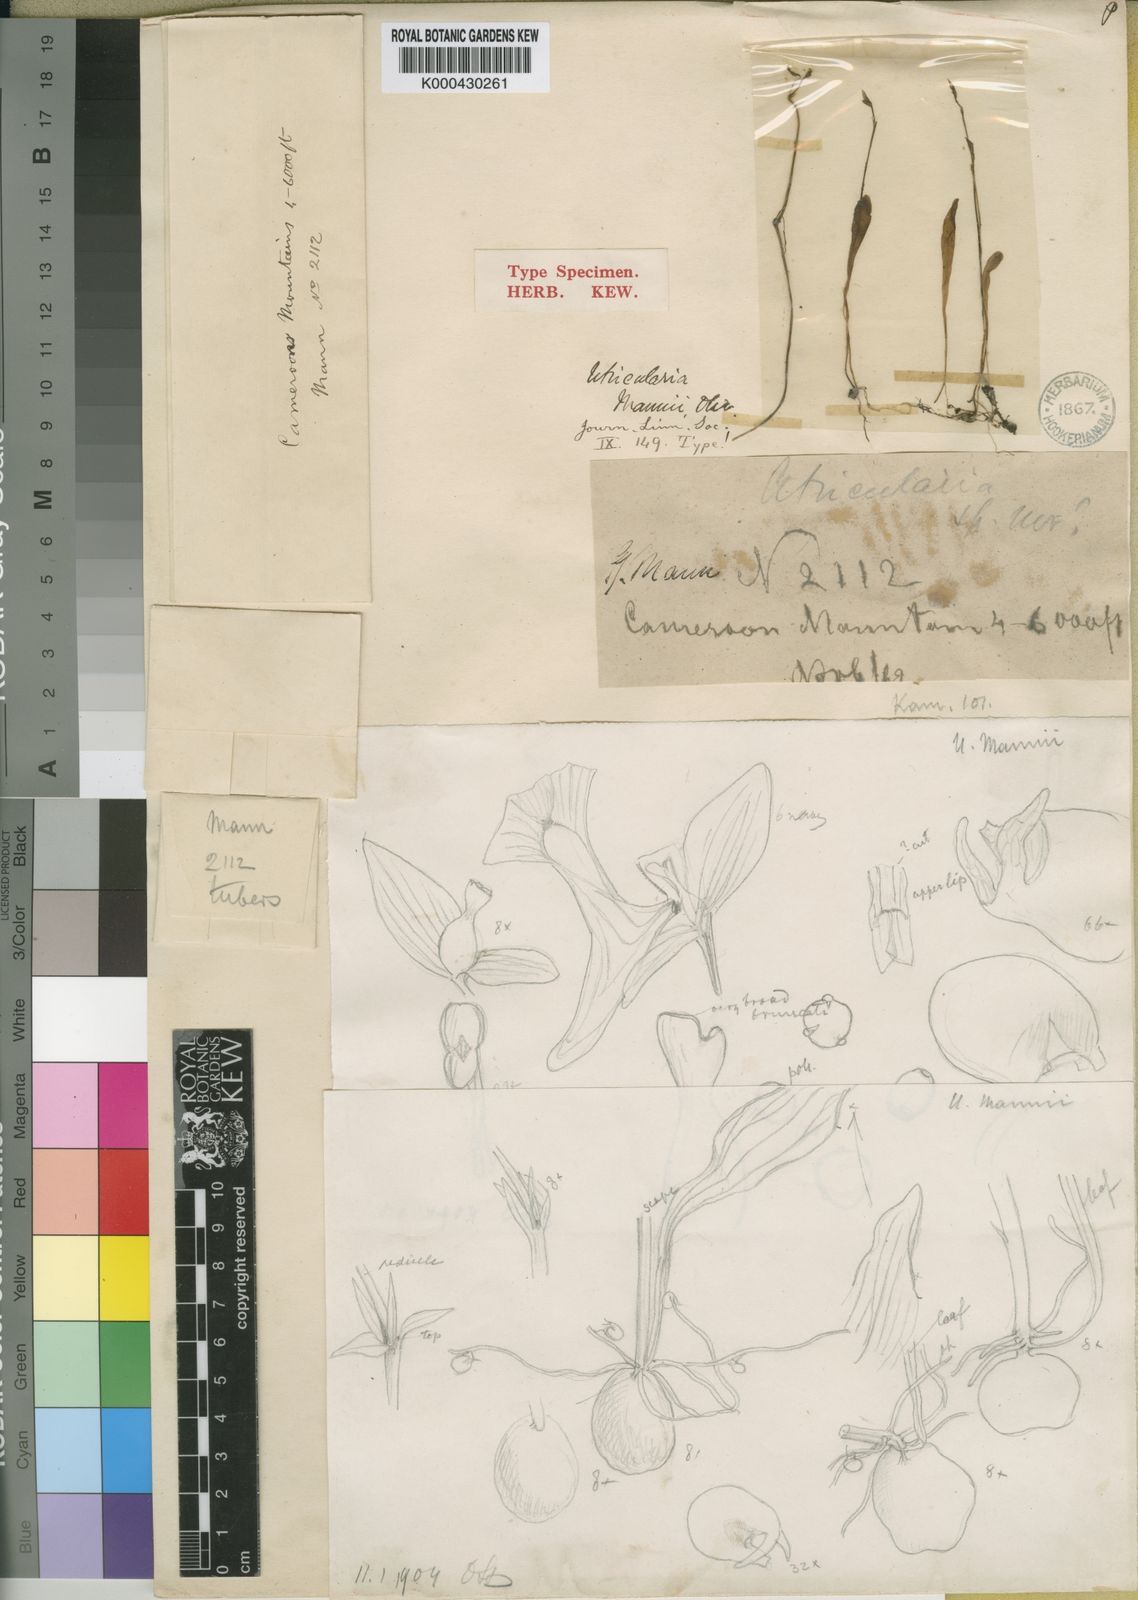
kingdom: Plantae
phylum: Tracheophyta
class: Magnoliopsida
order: Lamiales
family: Lentibulariaceae
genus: Utricularia
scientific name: Utricularia mannii
